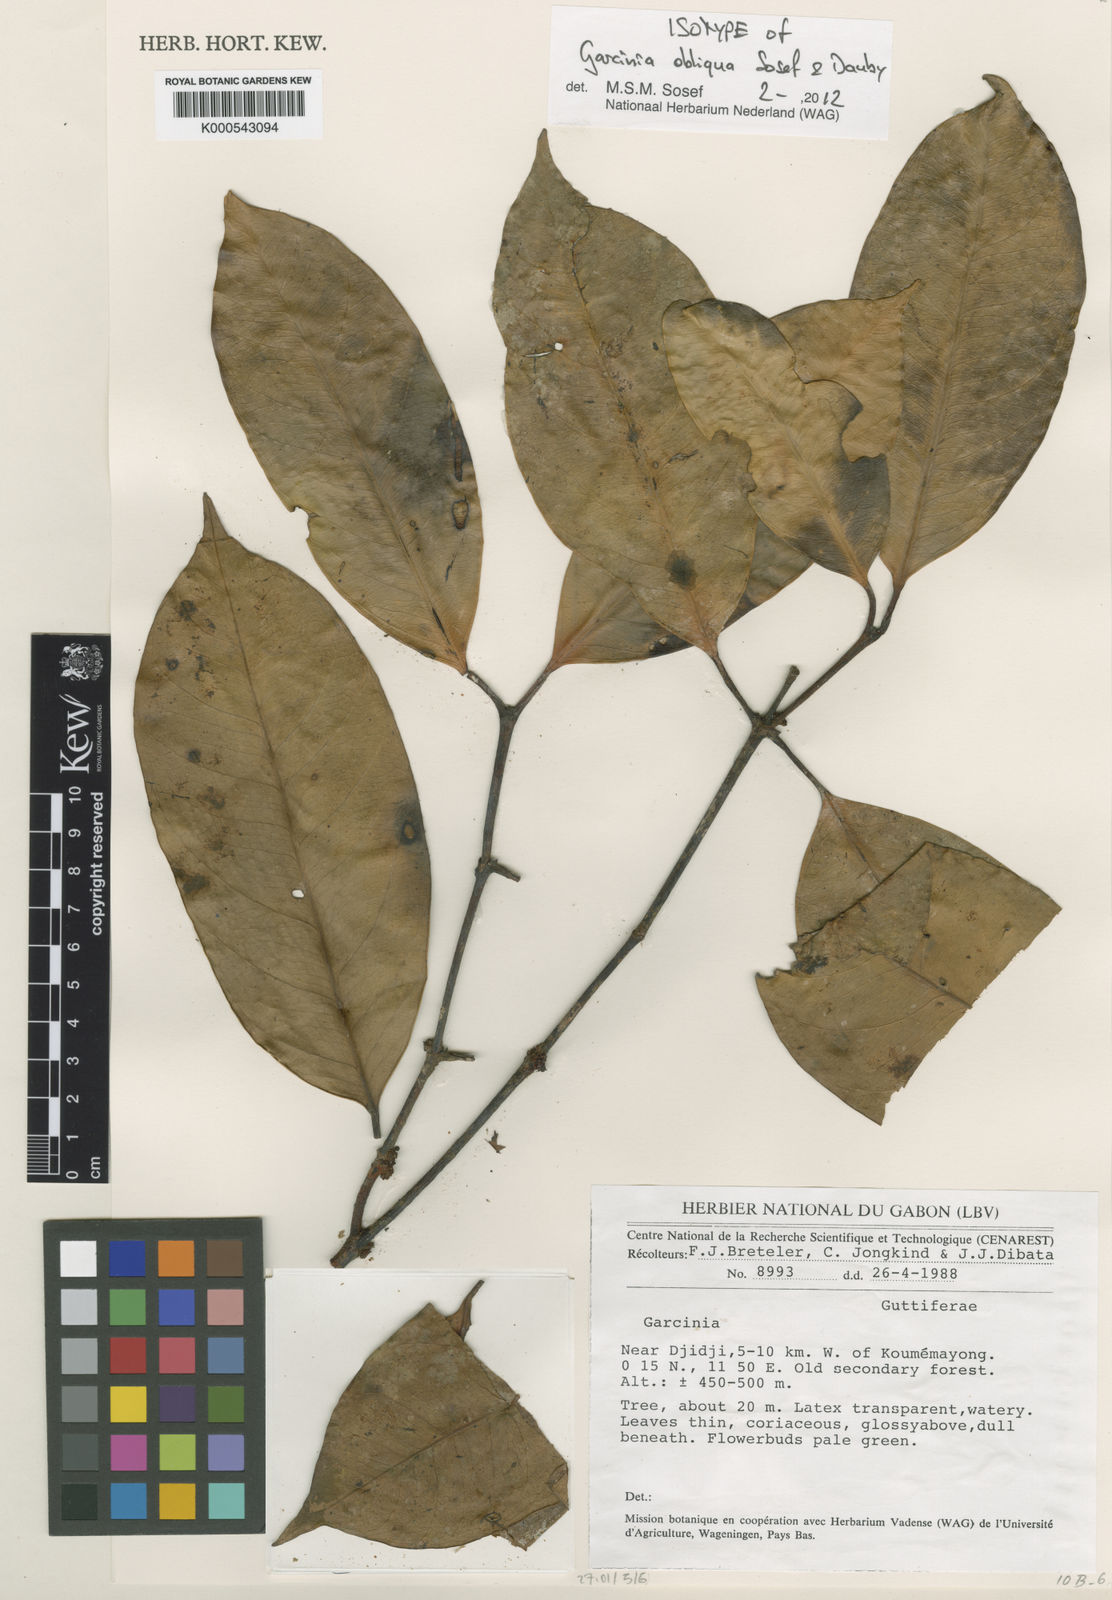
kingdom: Plantae
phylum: Tracheophyta
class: Magnoliopsida
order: Malpighiales
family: Clusiaceae
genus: Garcinia
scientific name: Garcinia obliqua
